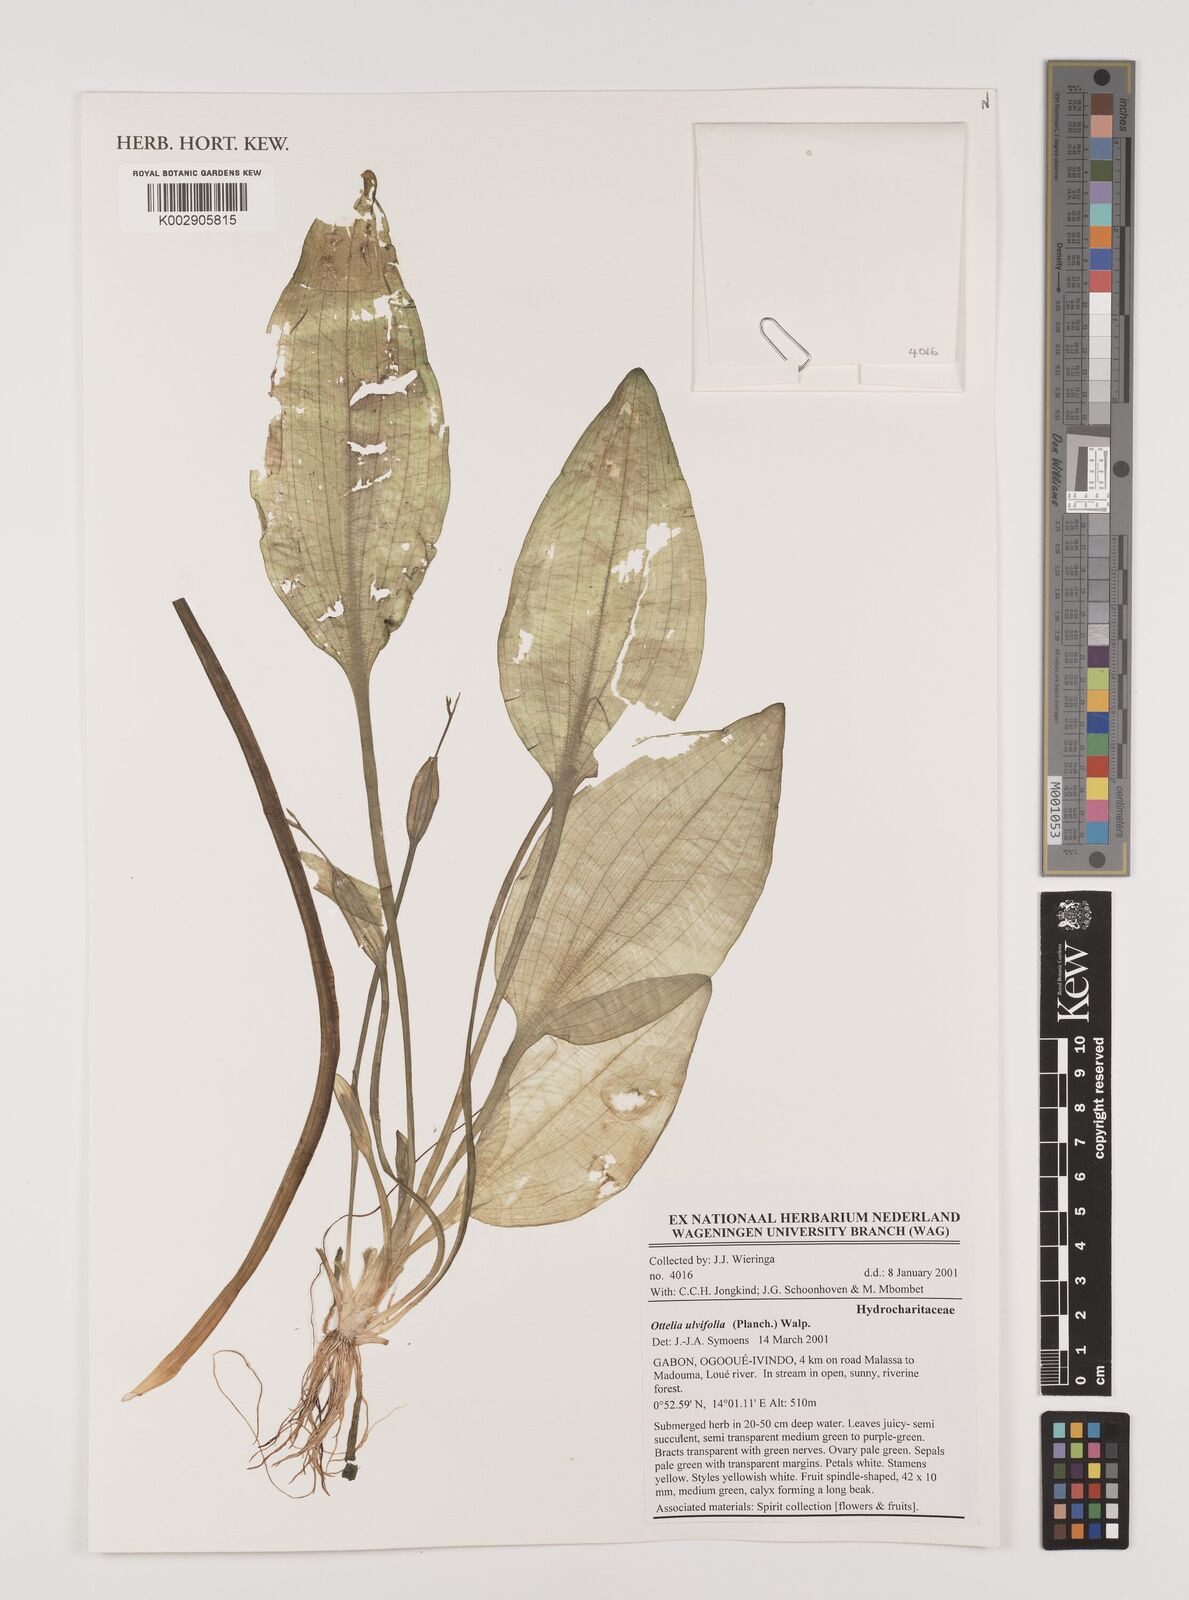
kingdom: Plantae
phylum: Tracheophyta
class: Liliopsida
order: Alismatales
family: Hydrocharitaceae
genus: Ottelia
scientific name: Ottelia ulvifolia
